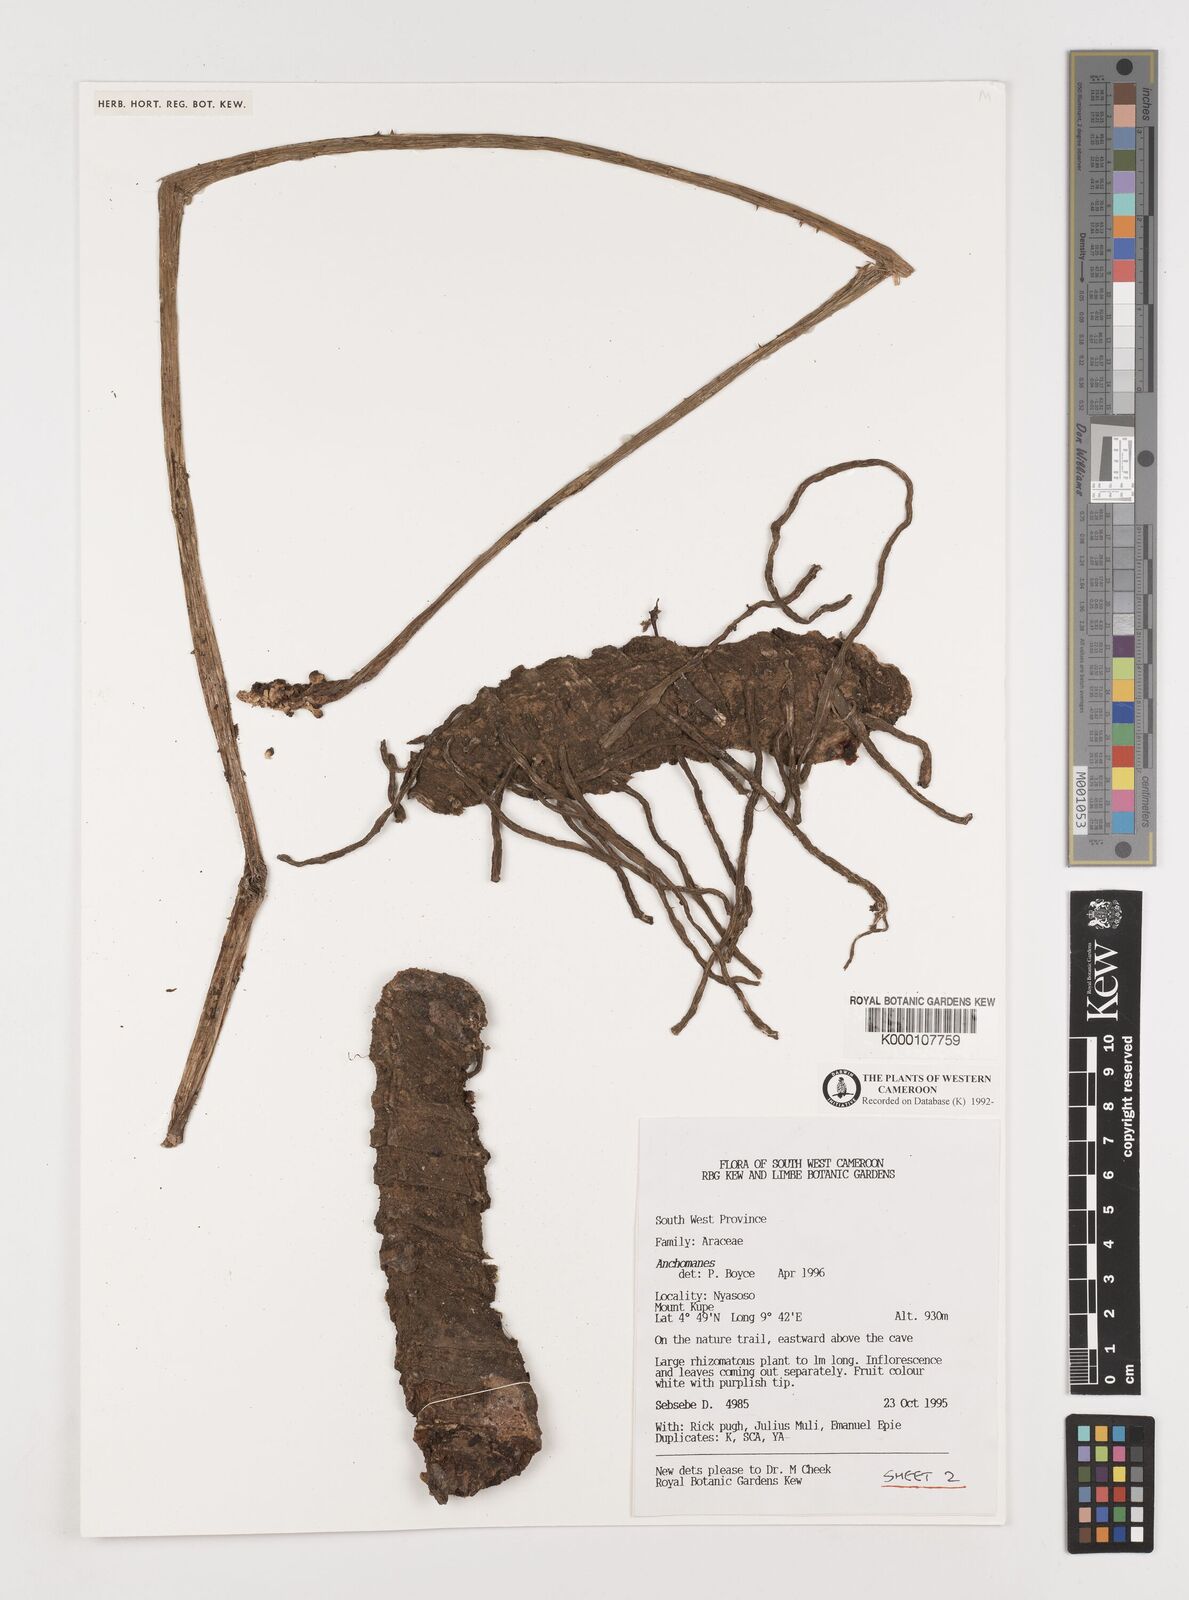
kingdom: Plantae
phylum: Tracheophyta
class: Liliopsida
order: Alismatales
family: Araceae
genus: Anchomanes
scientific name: Anchomanes
